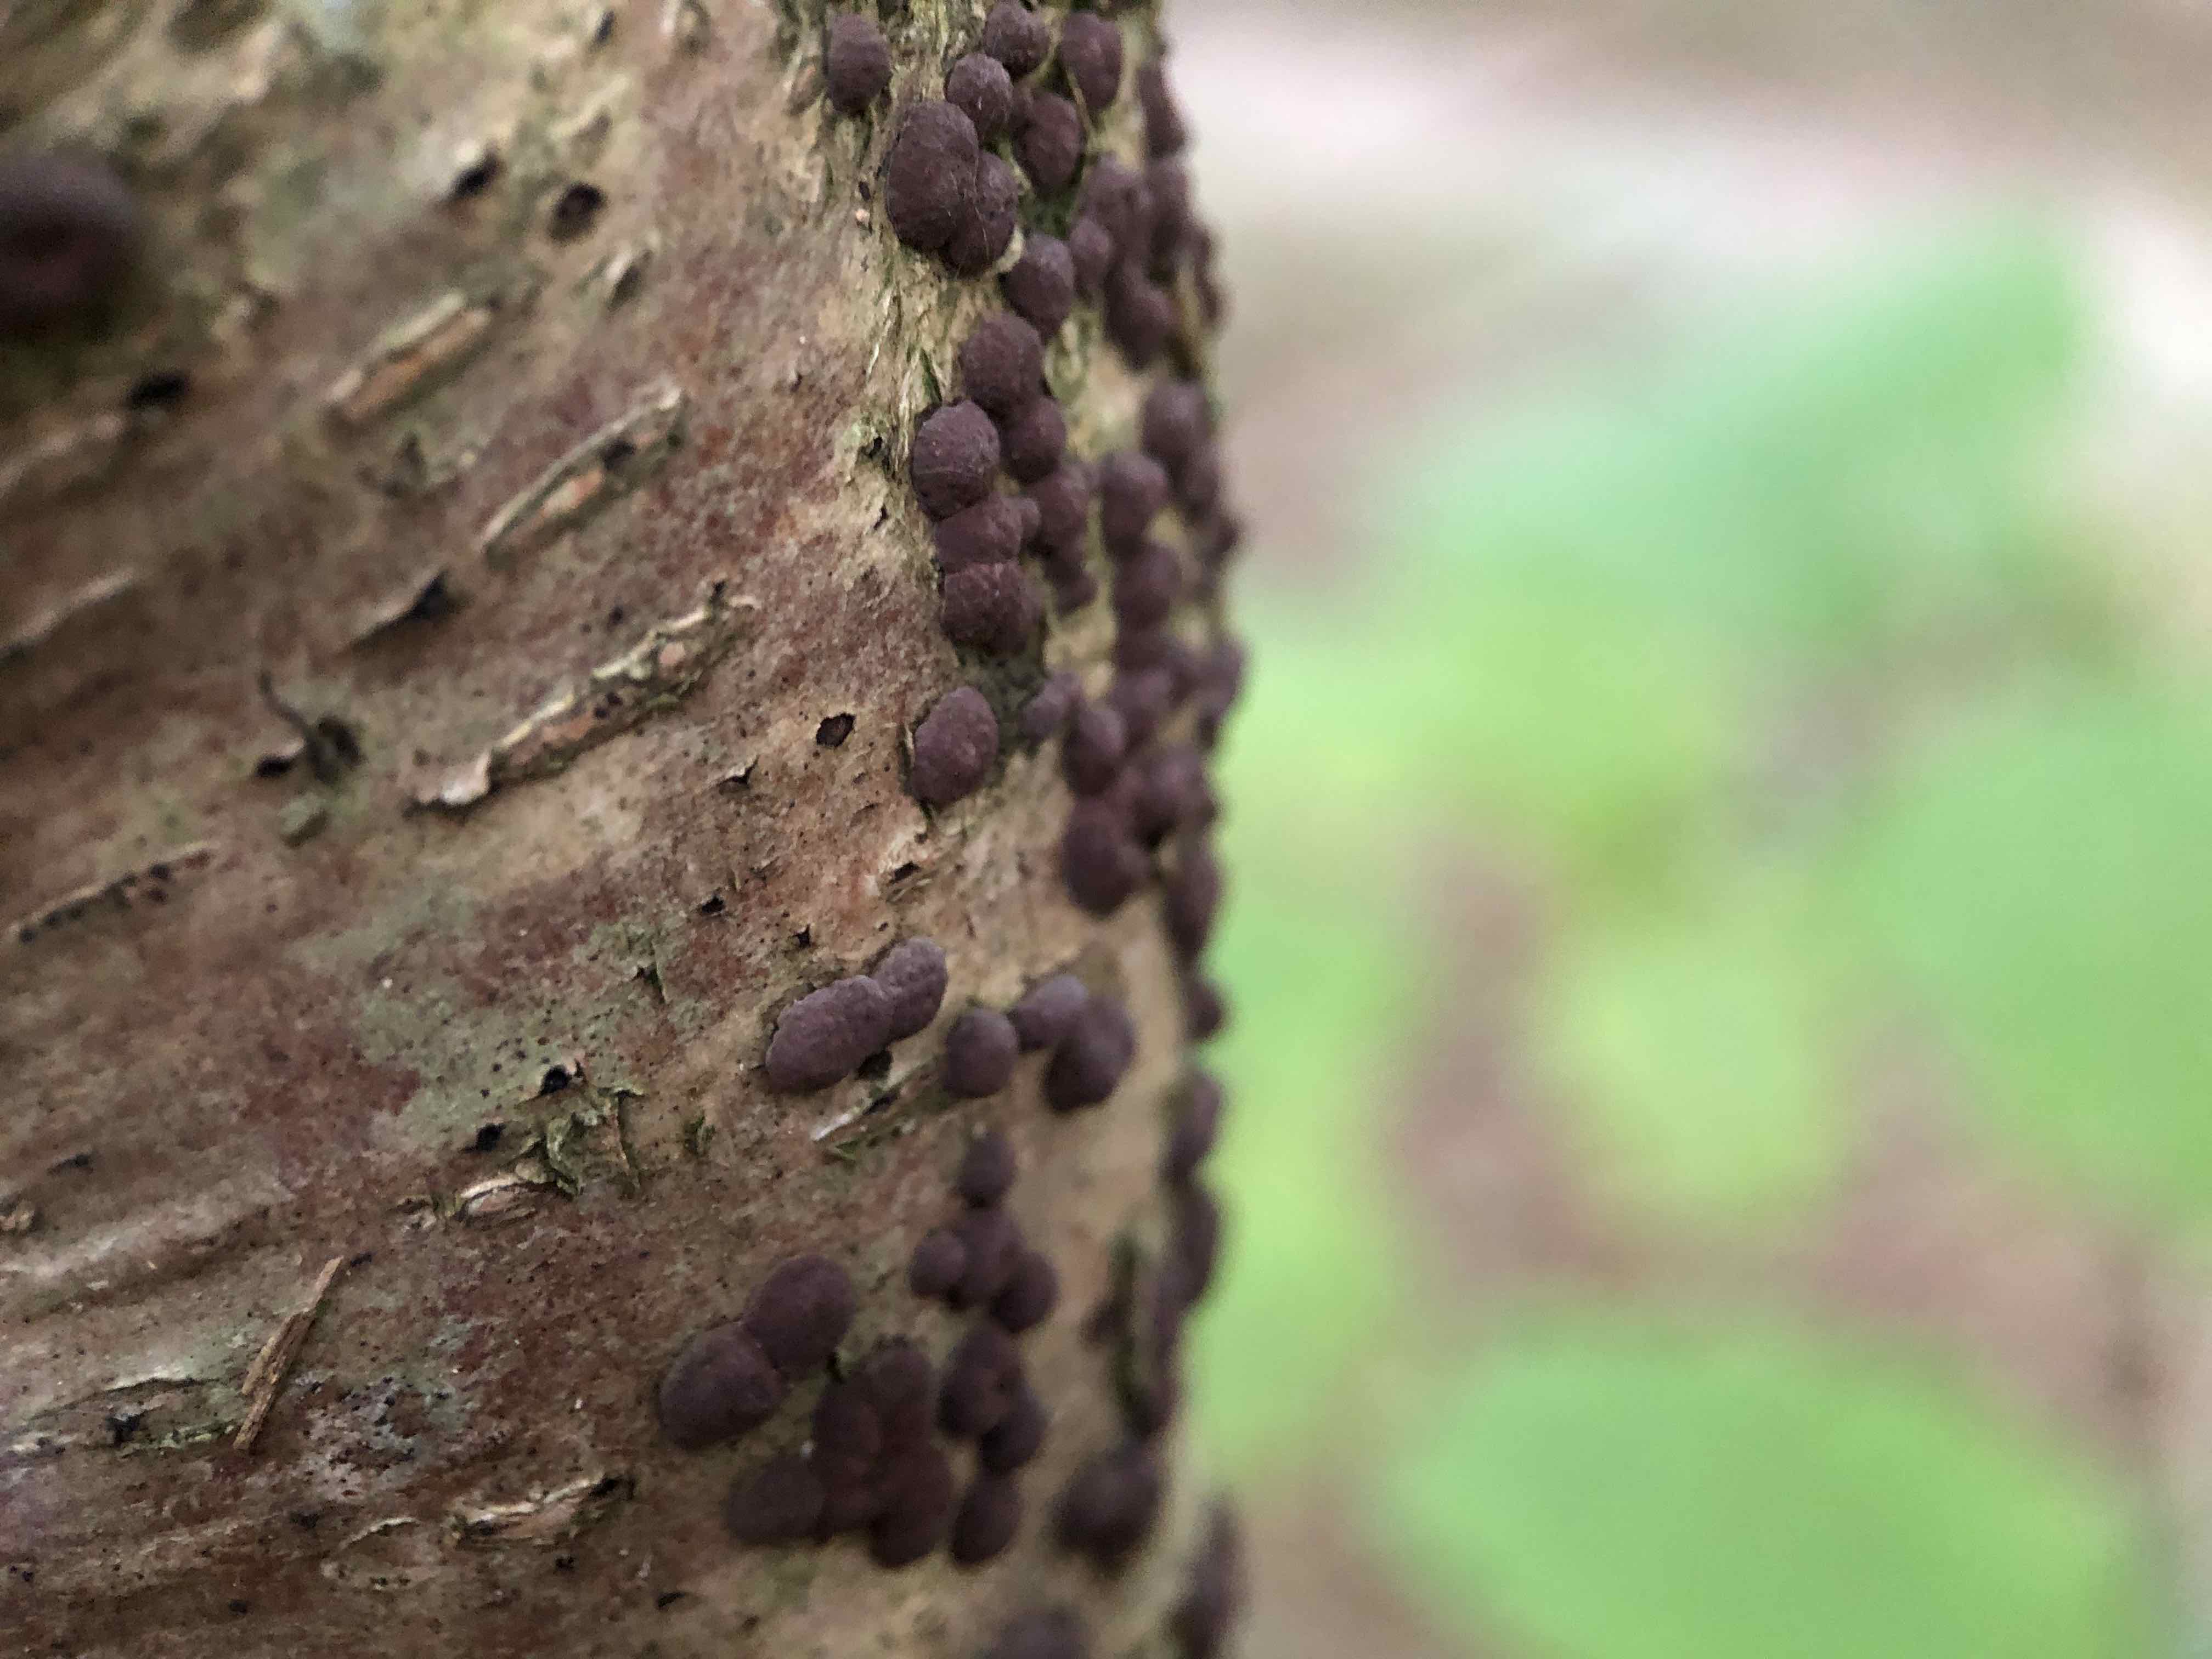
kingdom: Fungi
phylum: Ascomycota
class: Sordariomycetes
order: Xylariales
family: Hypoxylaceae
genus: Hypoxylon
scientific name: Hypoxylon fuscum
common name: kegleformet kulbær
